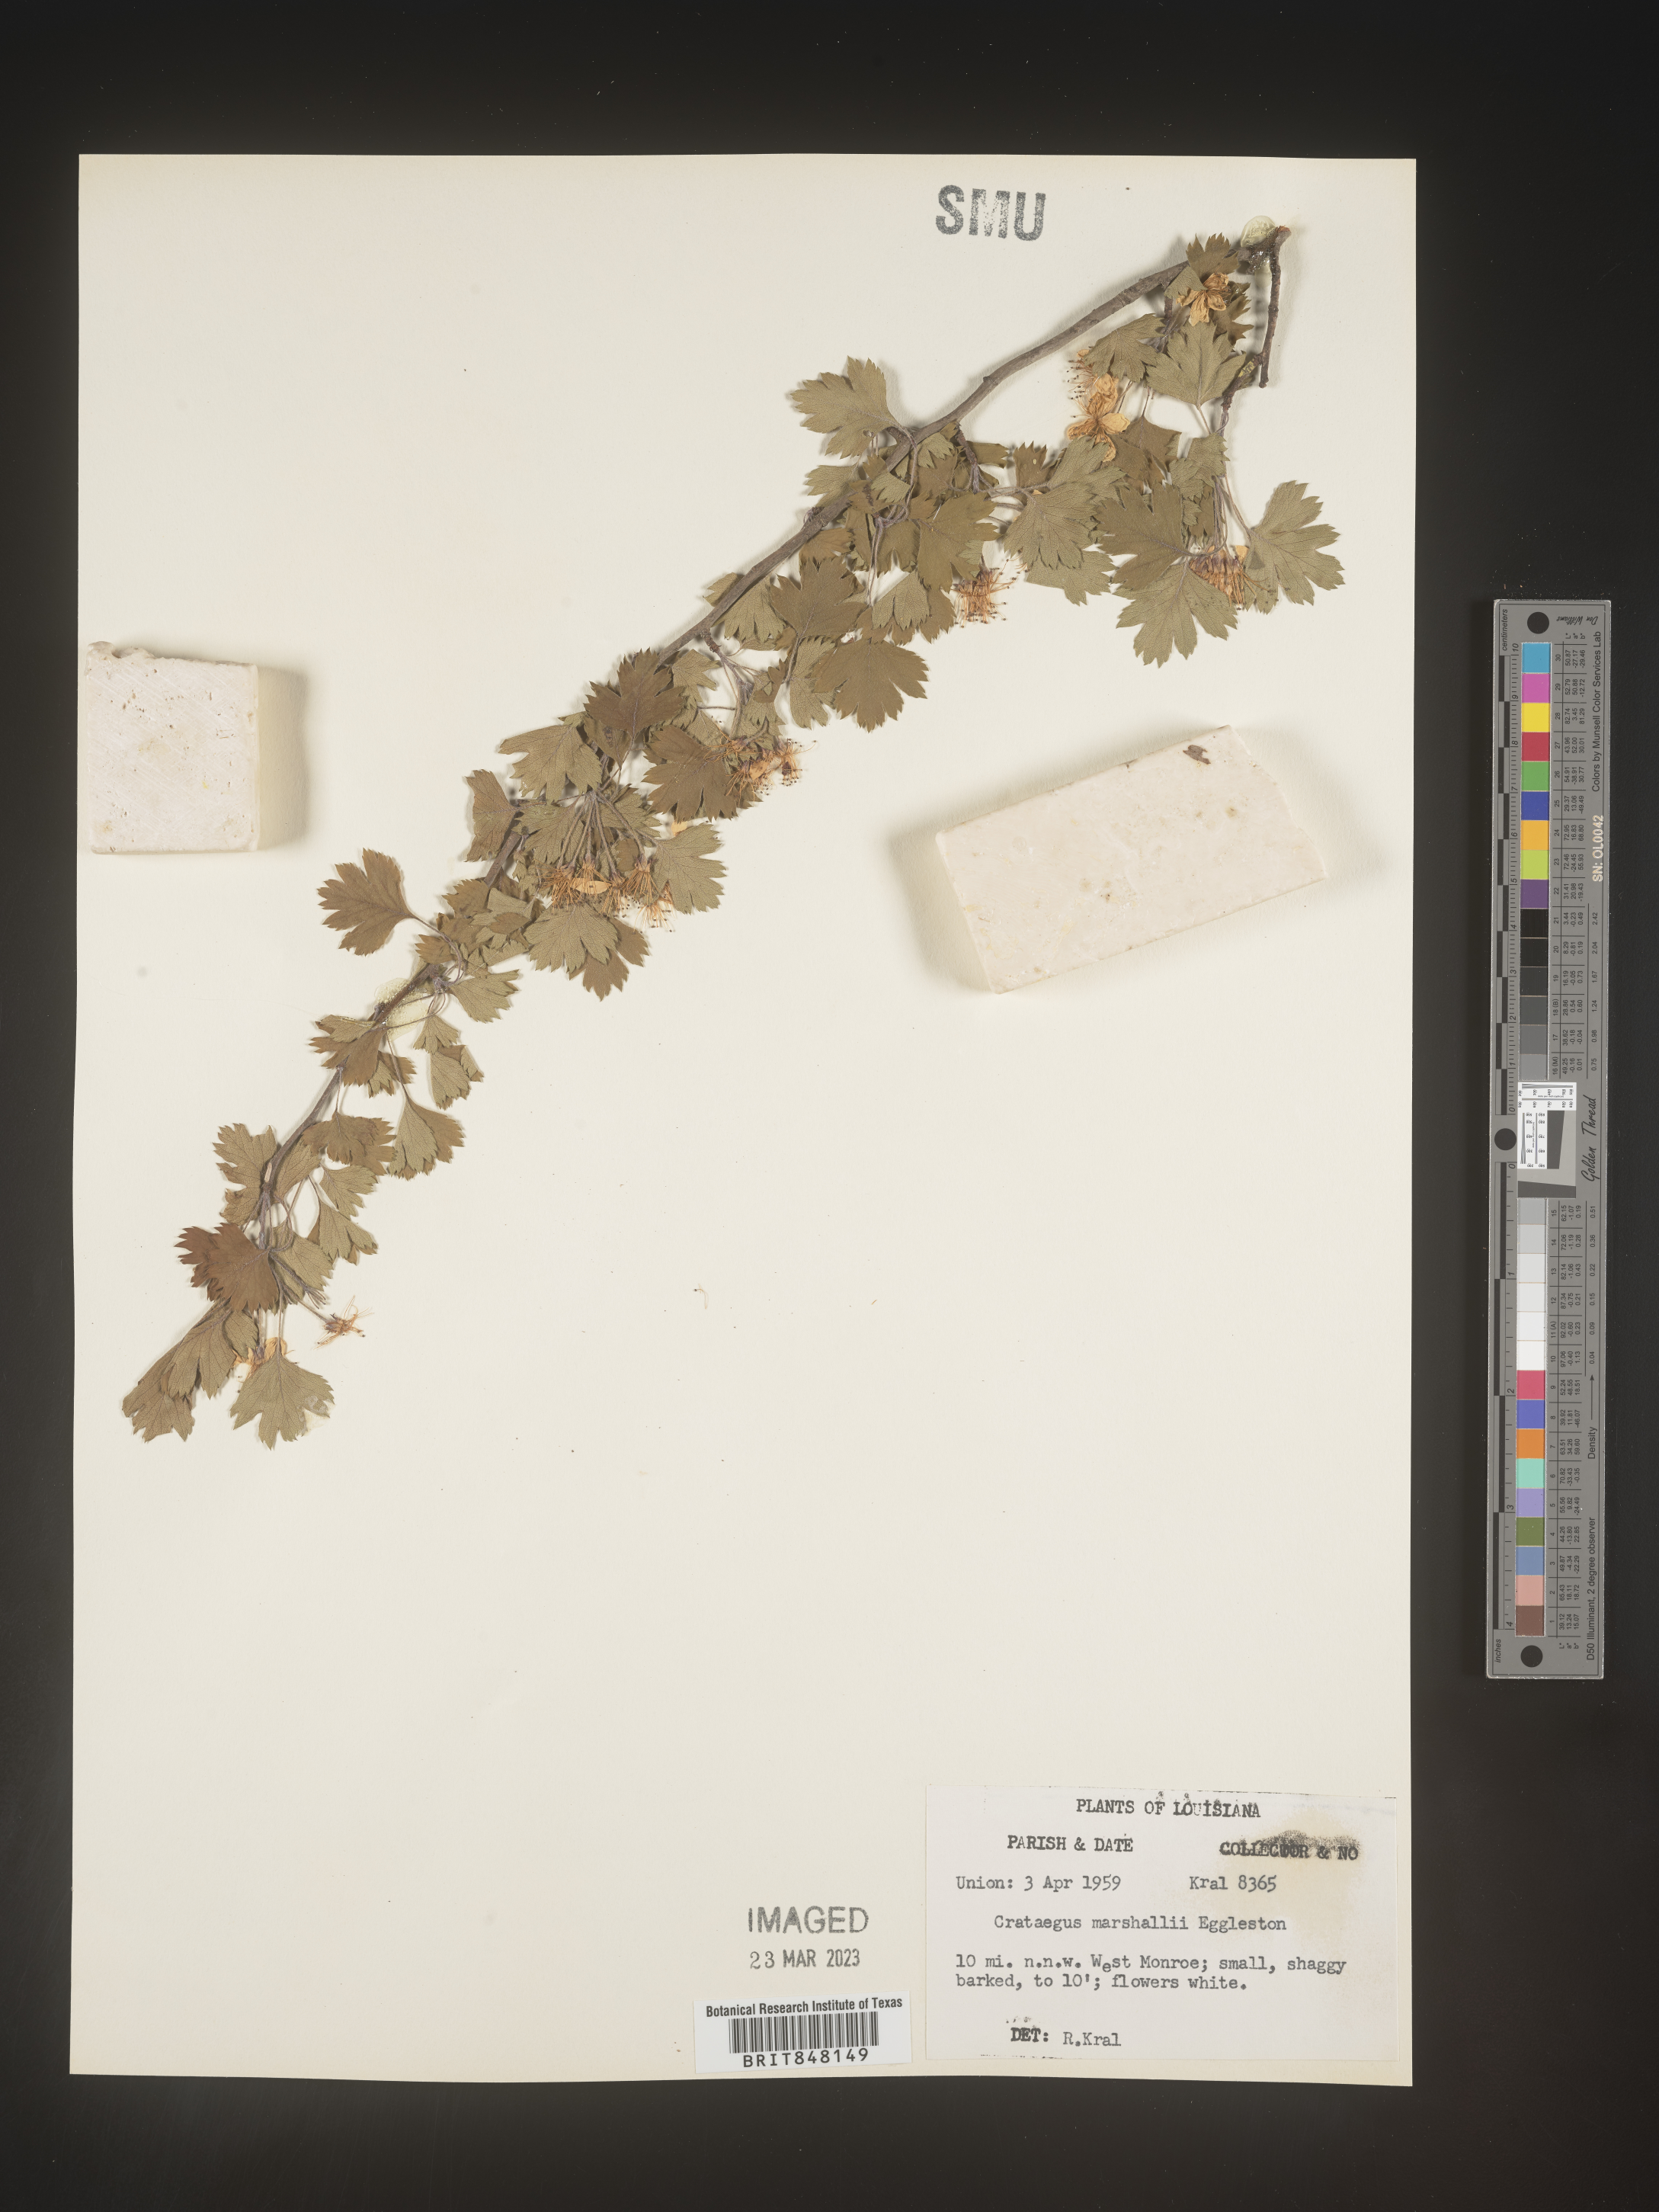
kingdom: Plantae
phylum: Tracheophyta
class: Magnoliopsida
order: Rosales
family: Rosaceae
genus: Crataegus
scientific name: Crataegus marshallii
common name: Parsley-hawthorn
